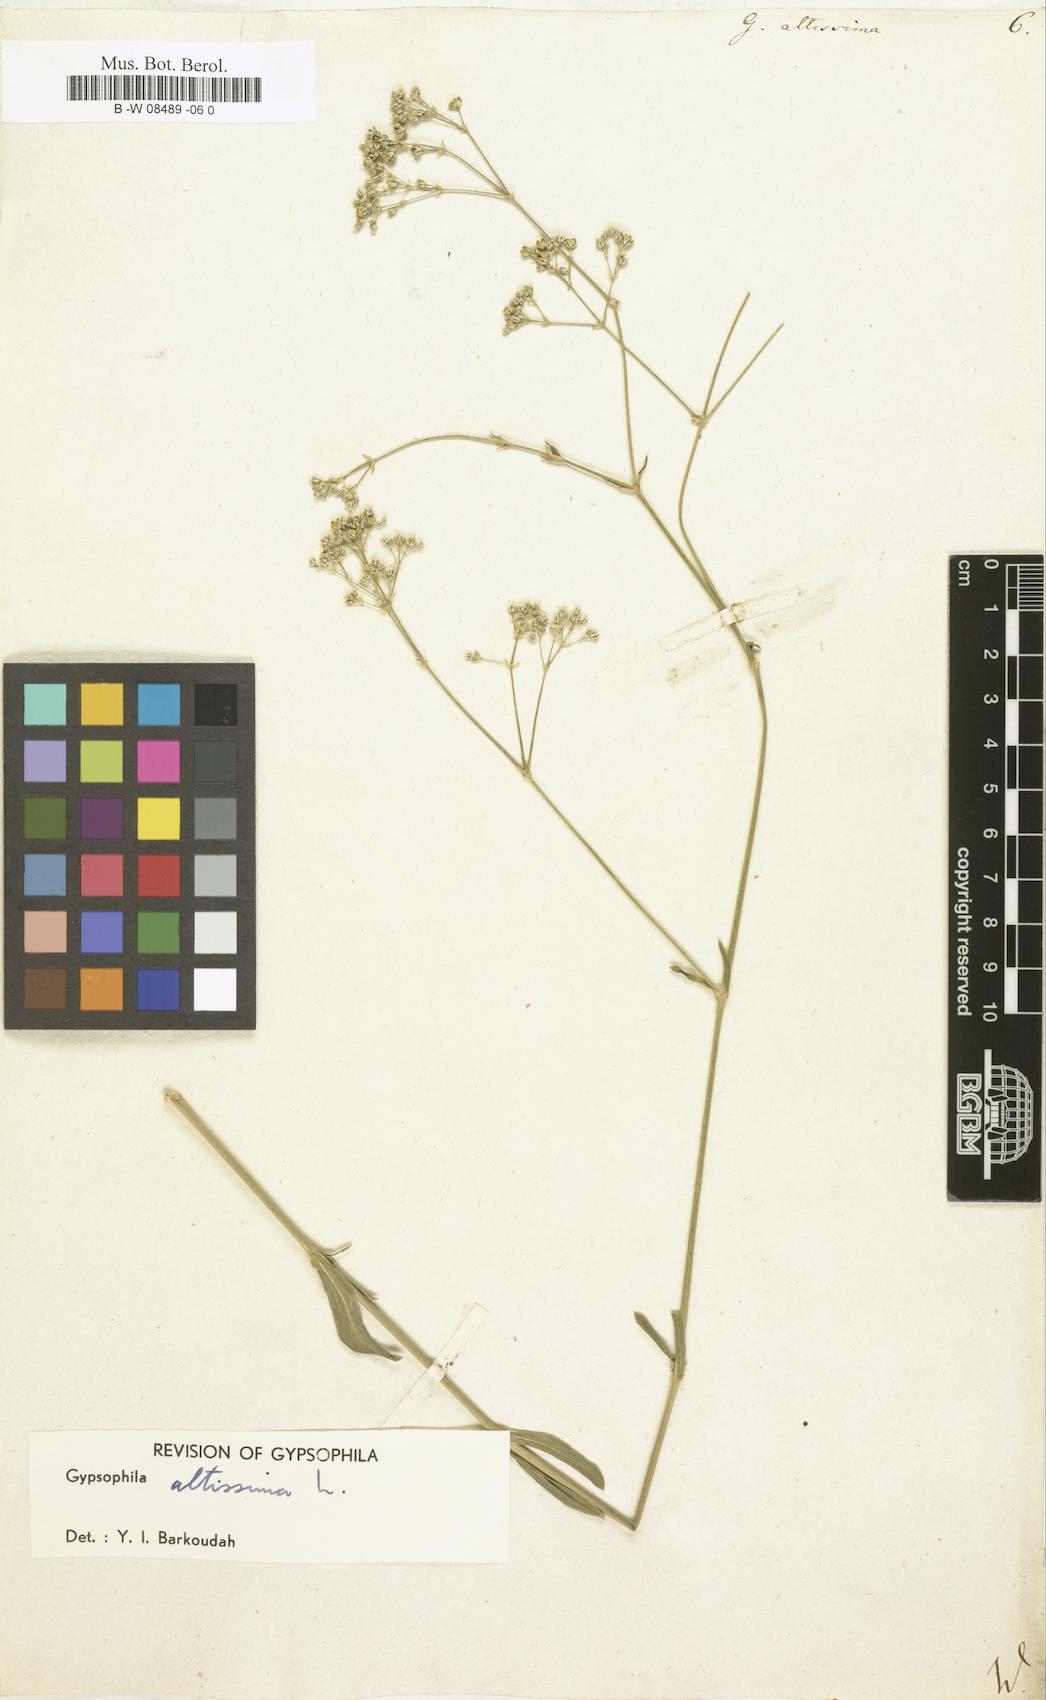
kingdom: Plantae
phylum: Tracheophyta
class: Magnoliopsida
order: Caryophyllales
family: Caryophyllaceae
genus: Gypsophila
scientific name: Gypsophila altissima
